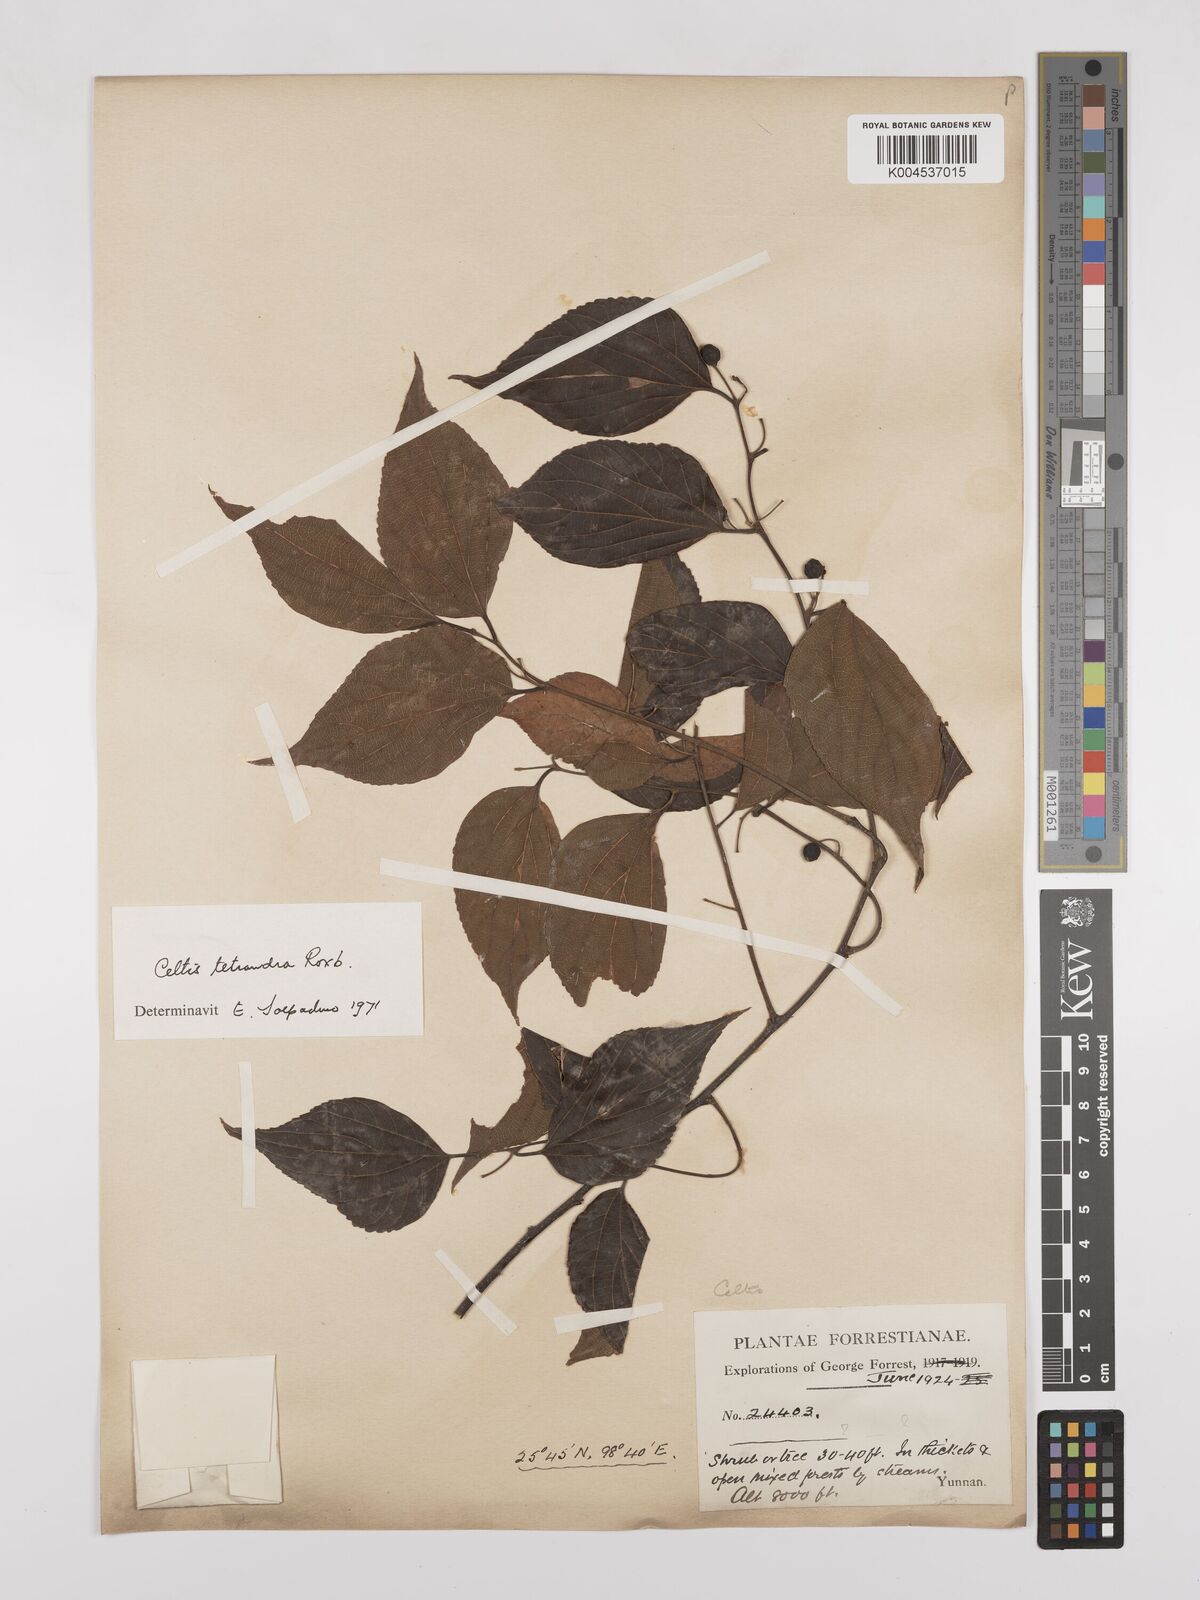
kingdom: Plantae
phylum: Tracheophyta
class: Magnoliopsida
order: Rosales
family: Cannabaceae
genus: Celtis
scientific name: Celtis tetrandra
